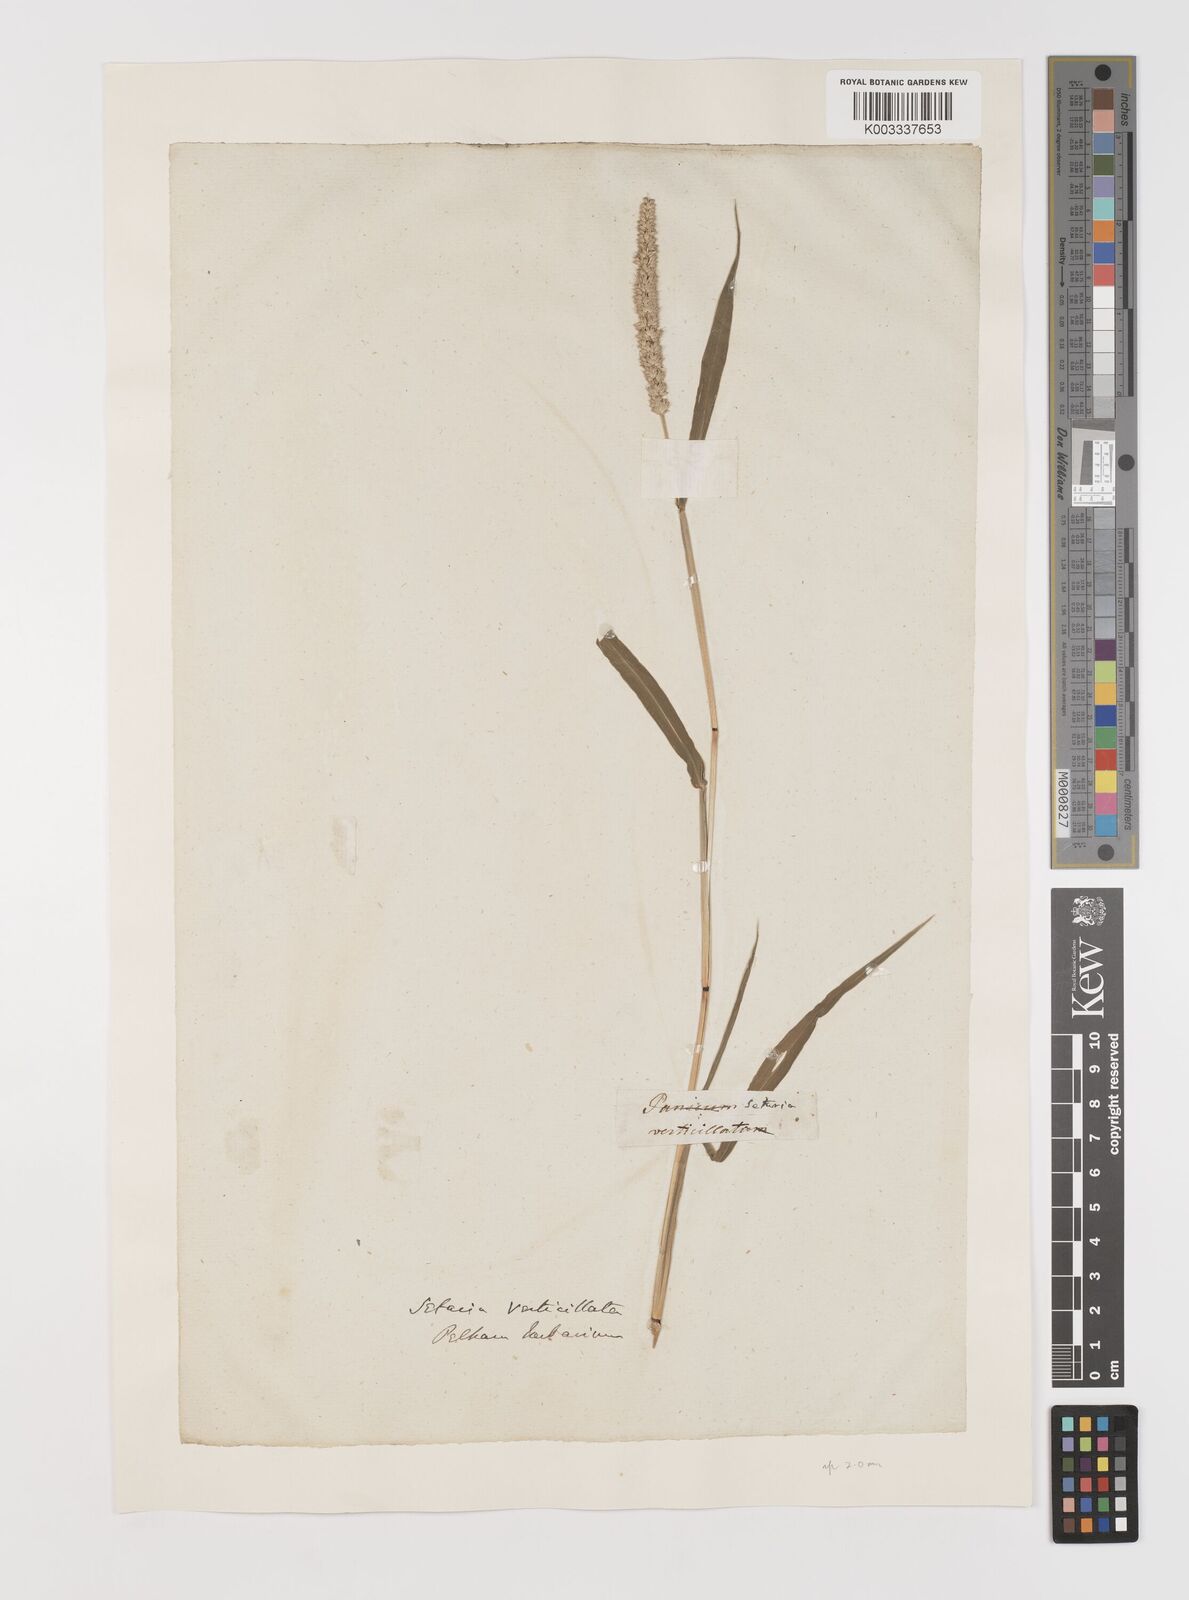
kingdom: Plantae
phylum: Tracheophyta
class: Liliopsida
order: Poales
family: Poaceae
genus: Setaria
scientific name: Setaria verticillata
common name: Hooked bristlegrass
